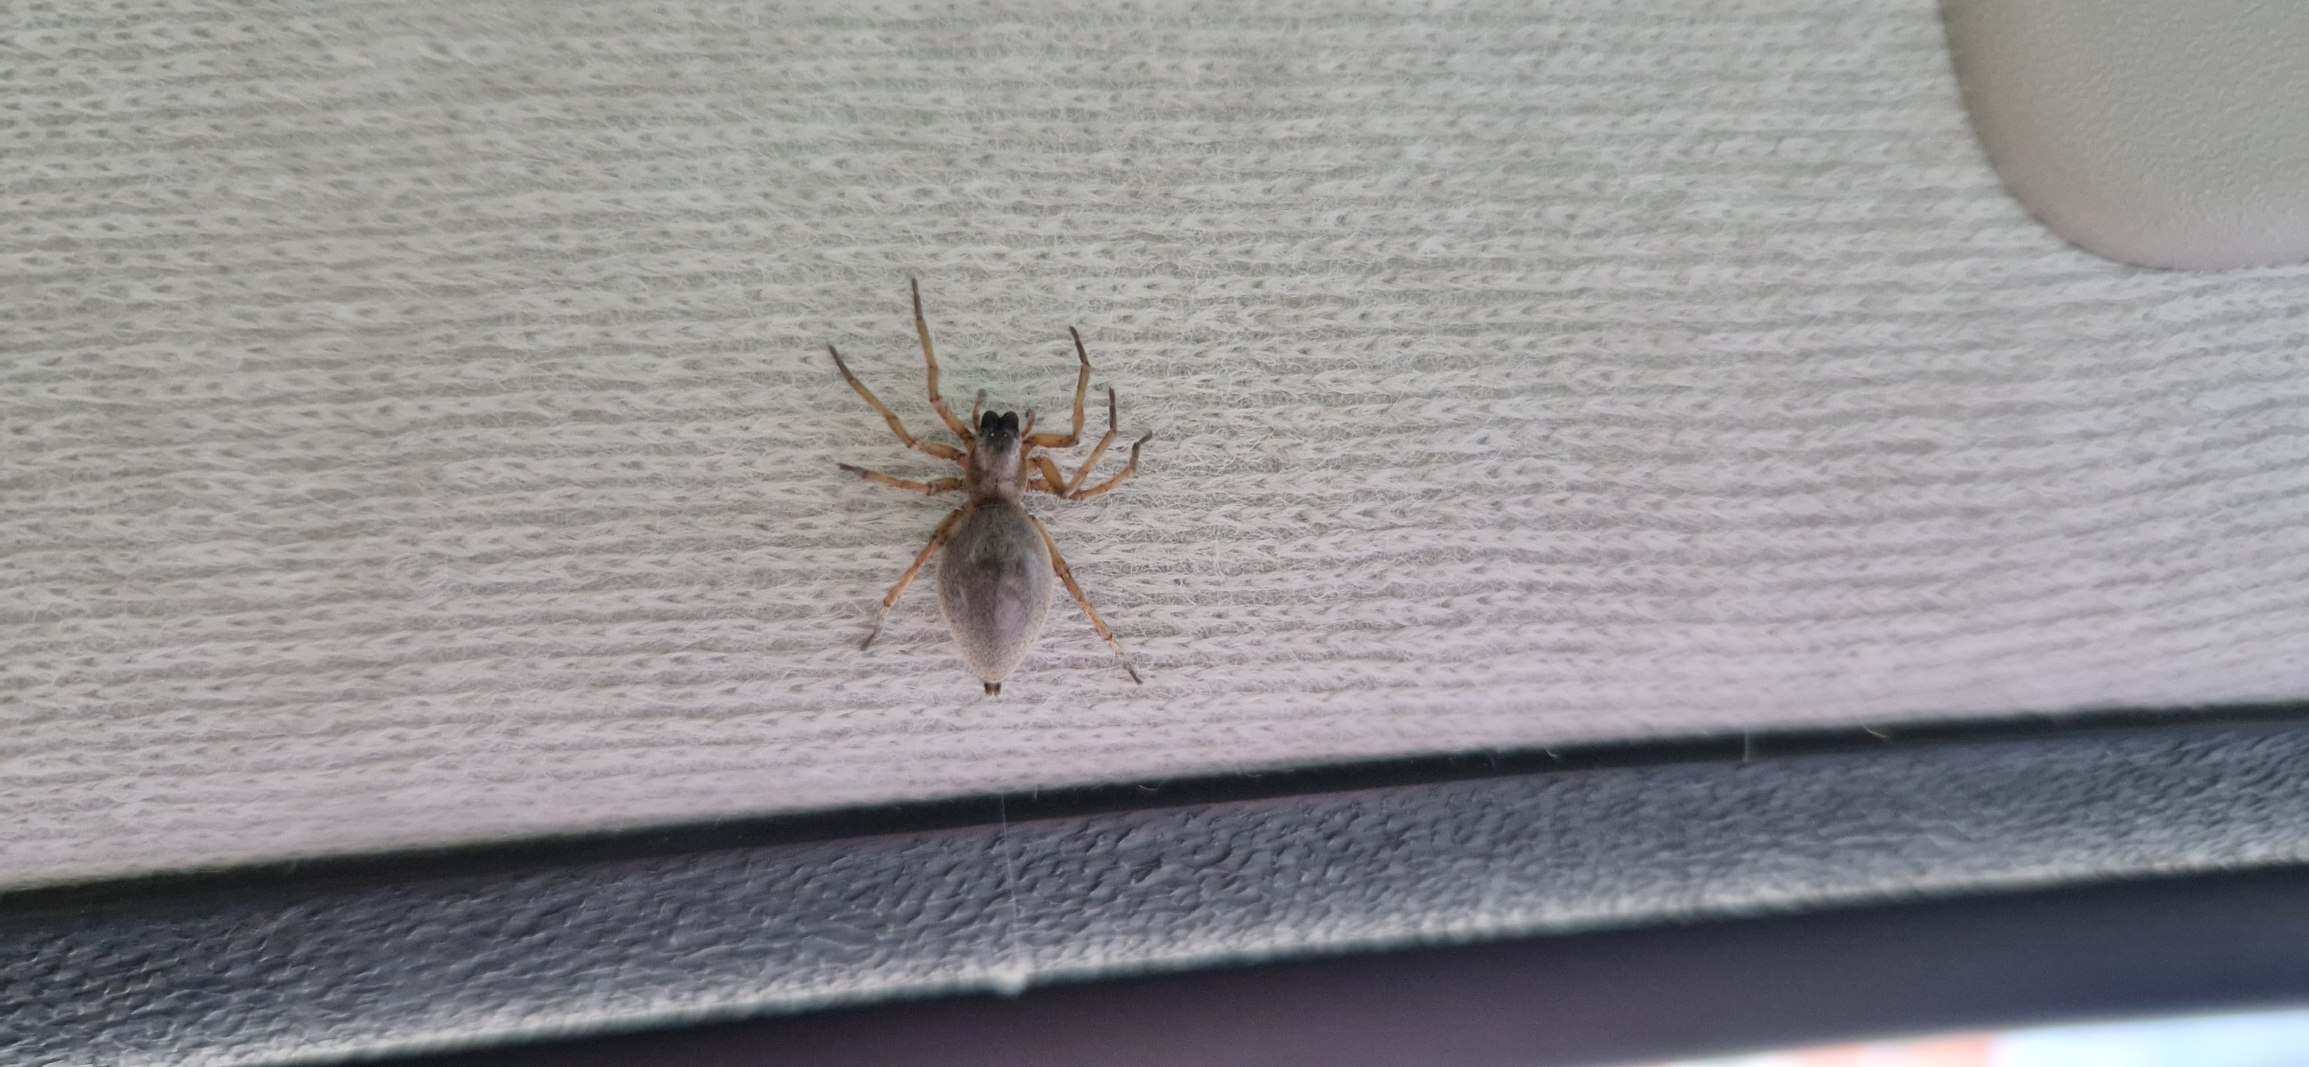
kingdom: Animalia
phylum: Arthropoda
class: Arachnida
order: Araneae
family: Clubionidae
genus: Clubiona
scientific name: Clubiona
